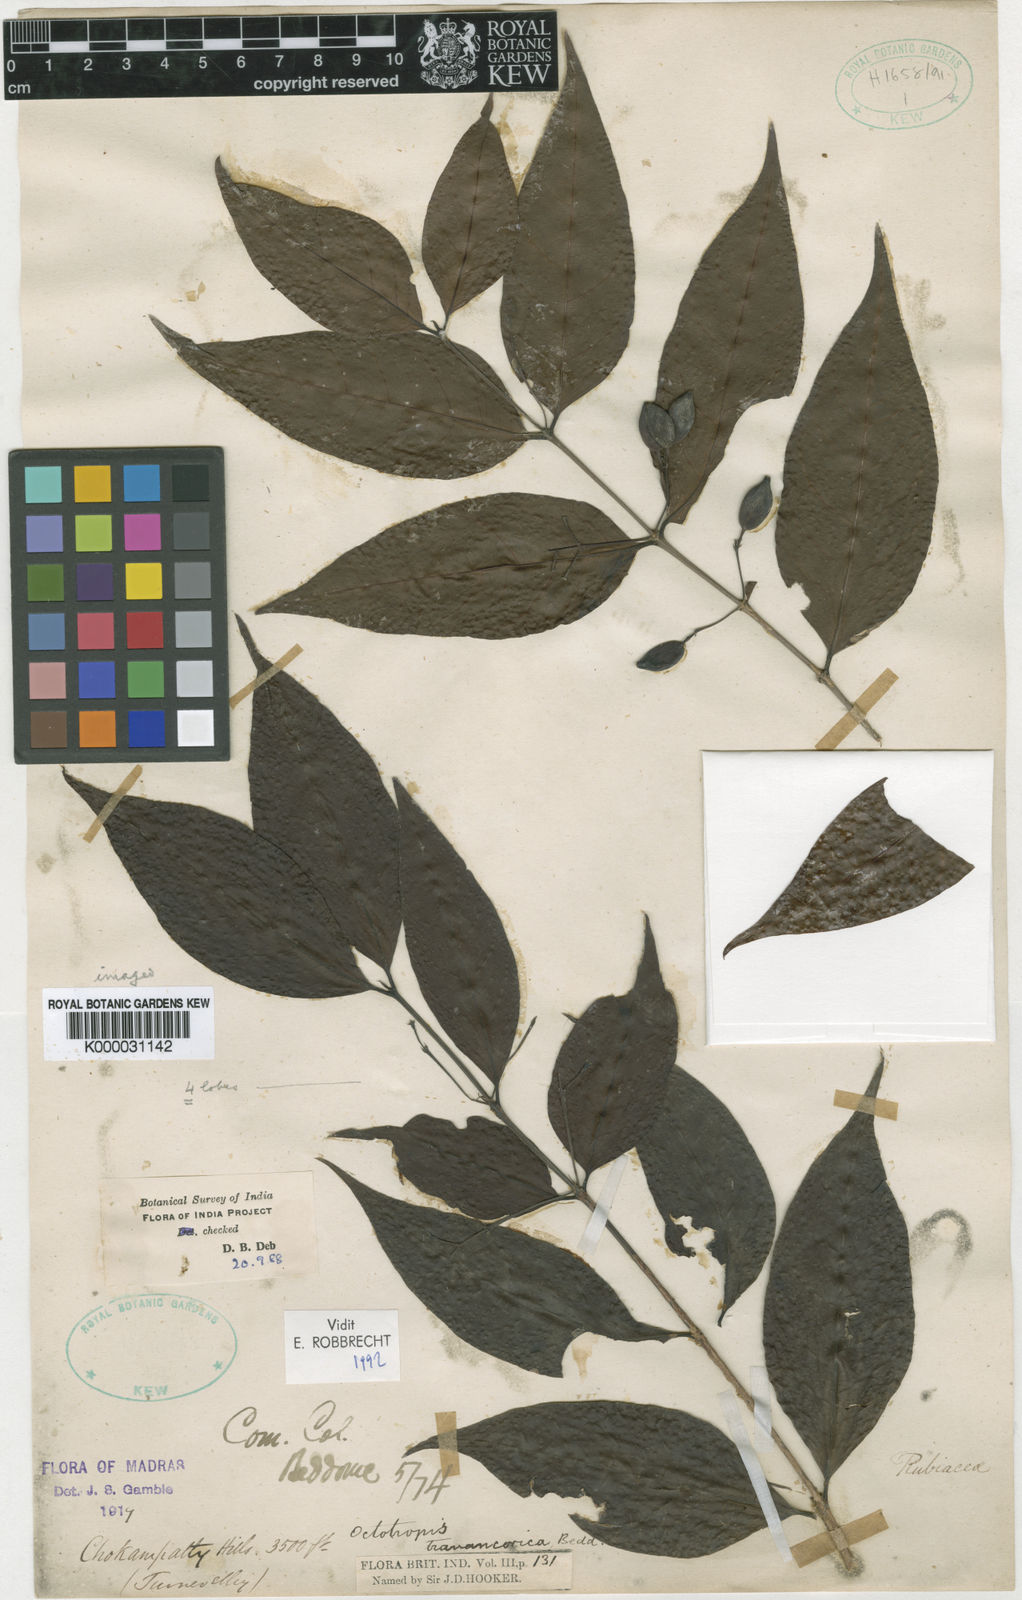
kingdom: Plantae
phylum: Tracheophyta
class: Magnoliopsida
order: Gentianales
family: Rubiaceae
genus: Octotropis
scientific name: Octotropis travancorica
